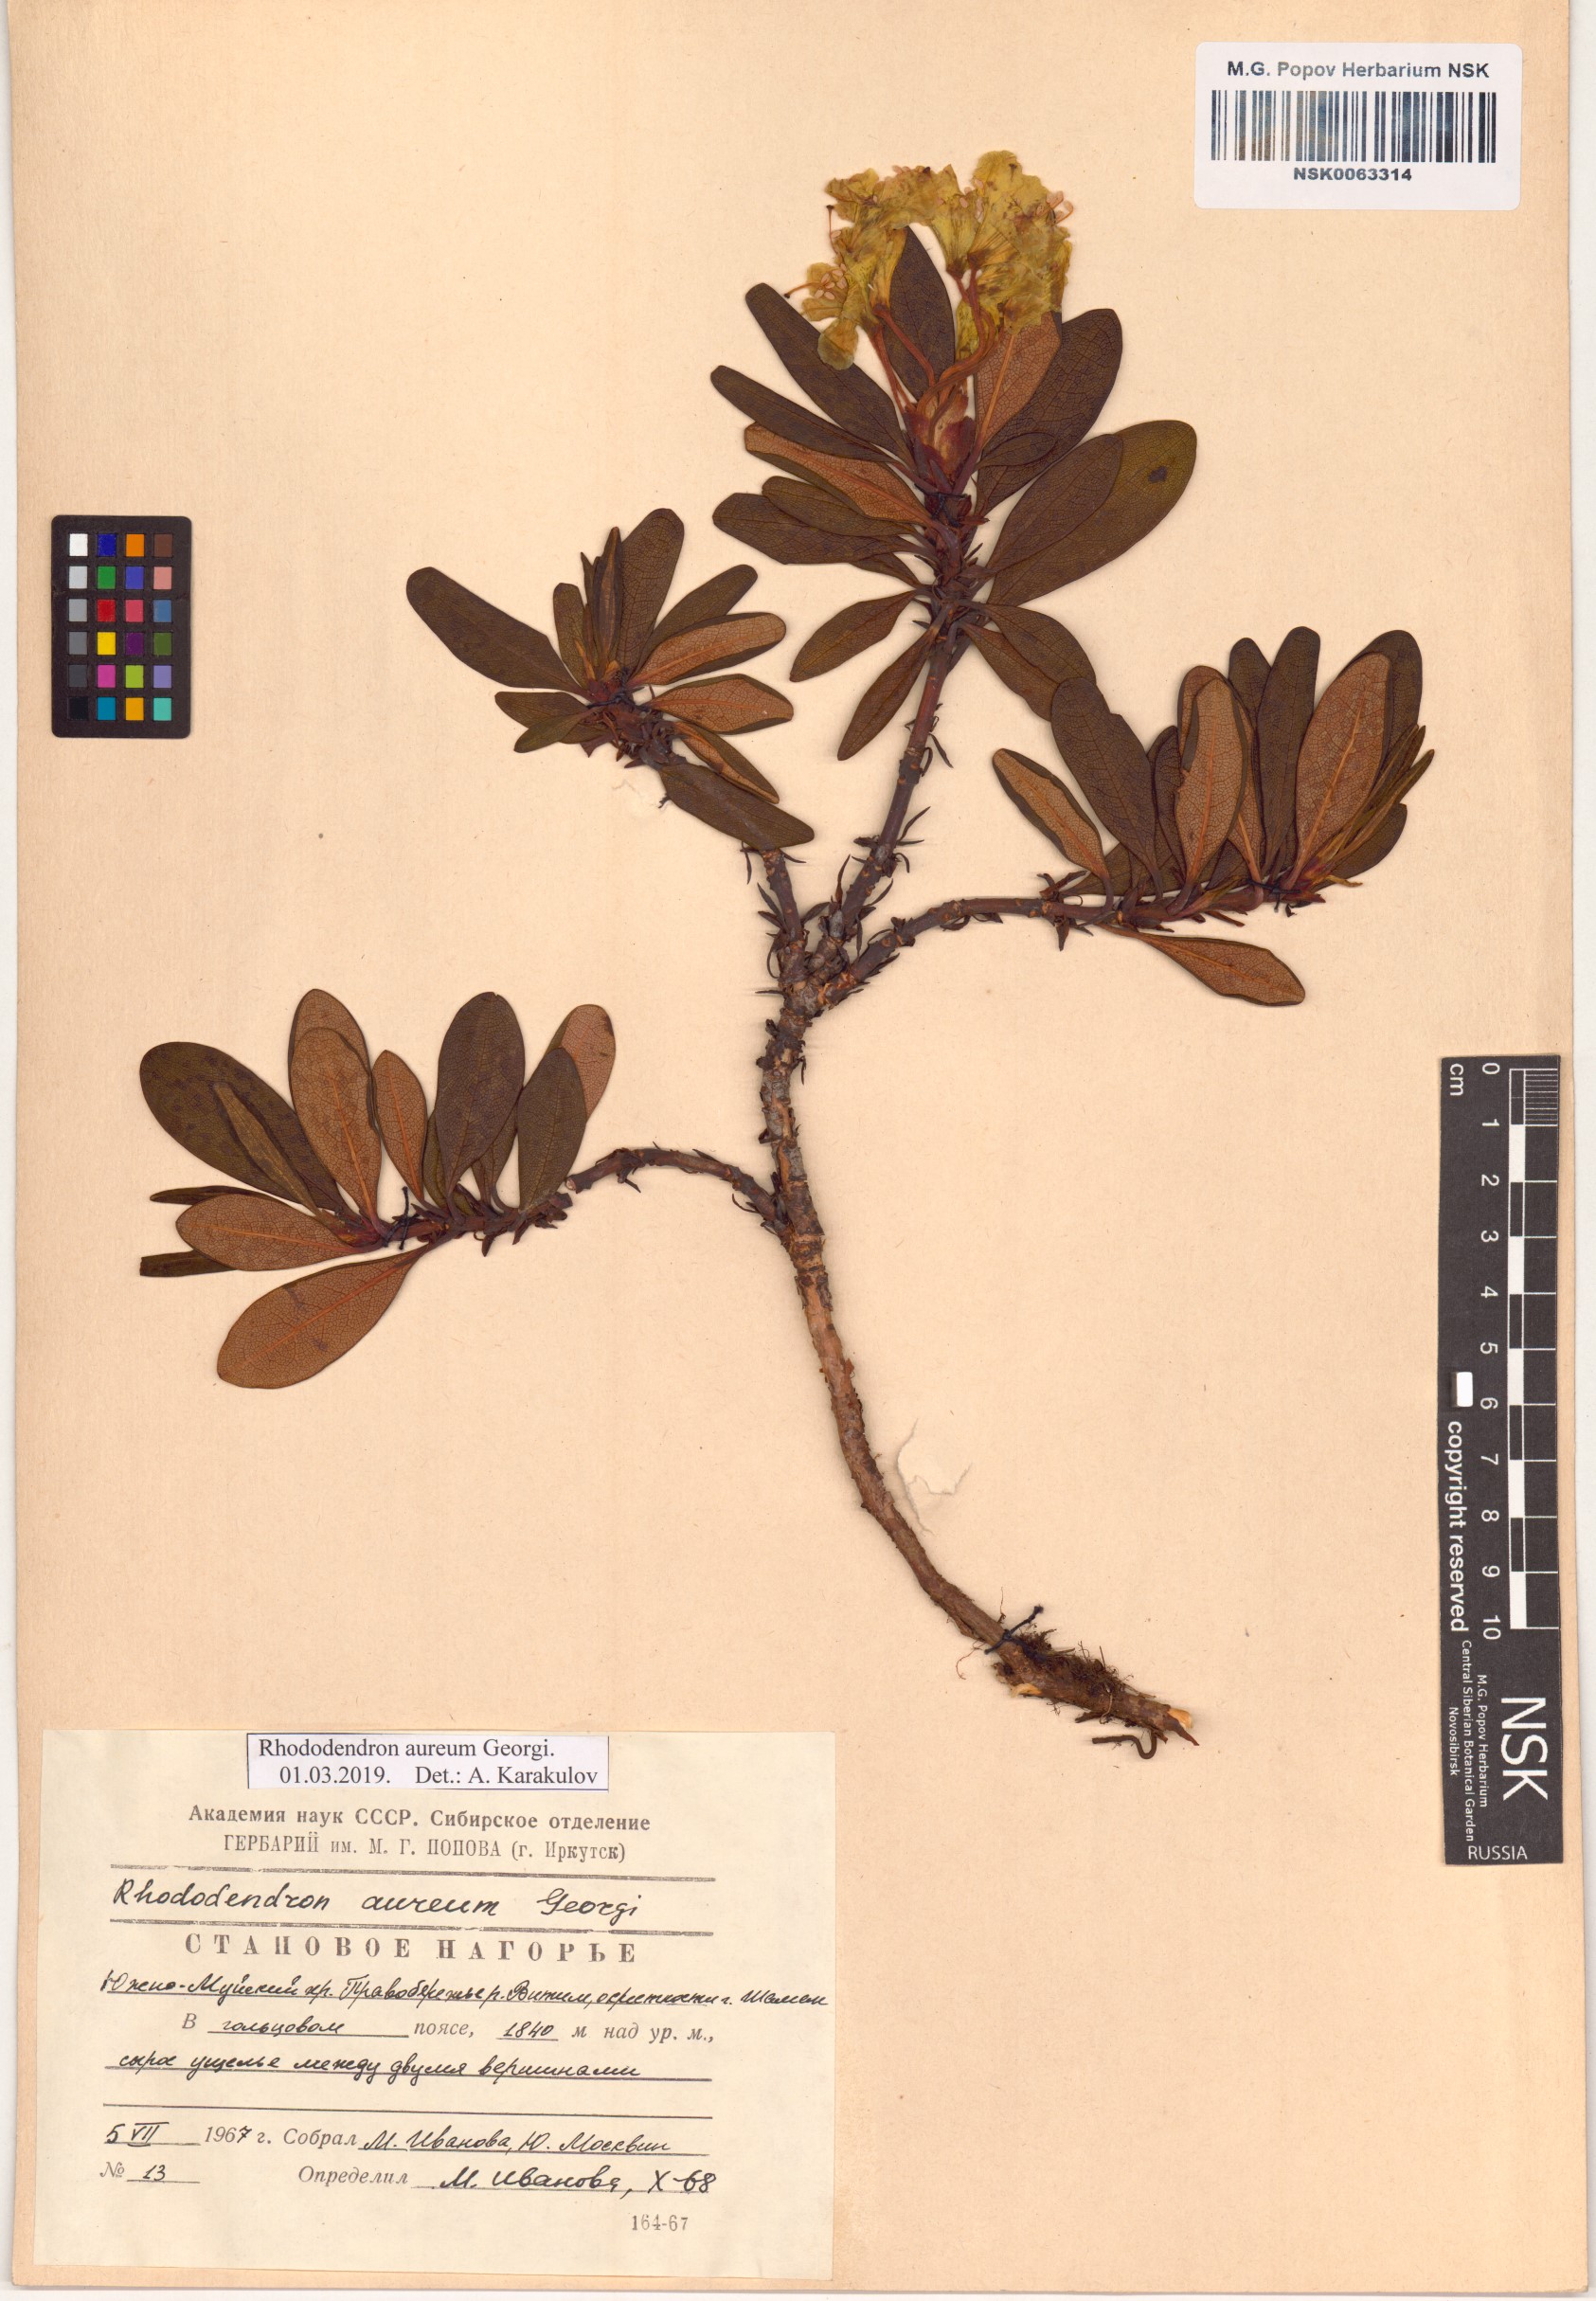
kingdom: Plantae
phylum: Tracheophyta
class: Magnoliopsida
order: Ericales
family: Ericaceae
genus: Rhododendron
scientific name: Rhododendron aureum
